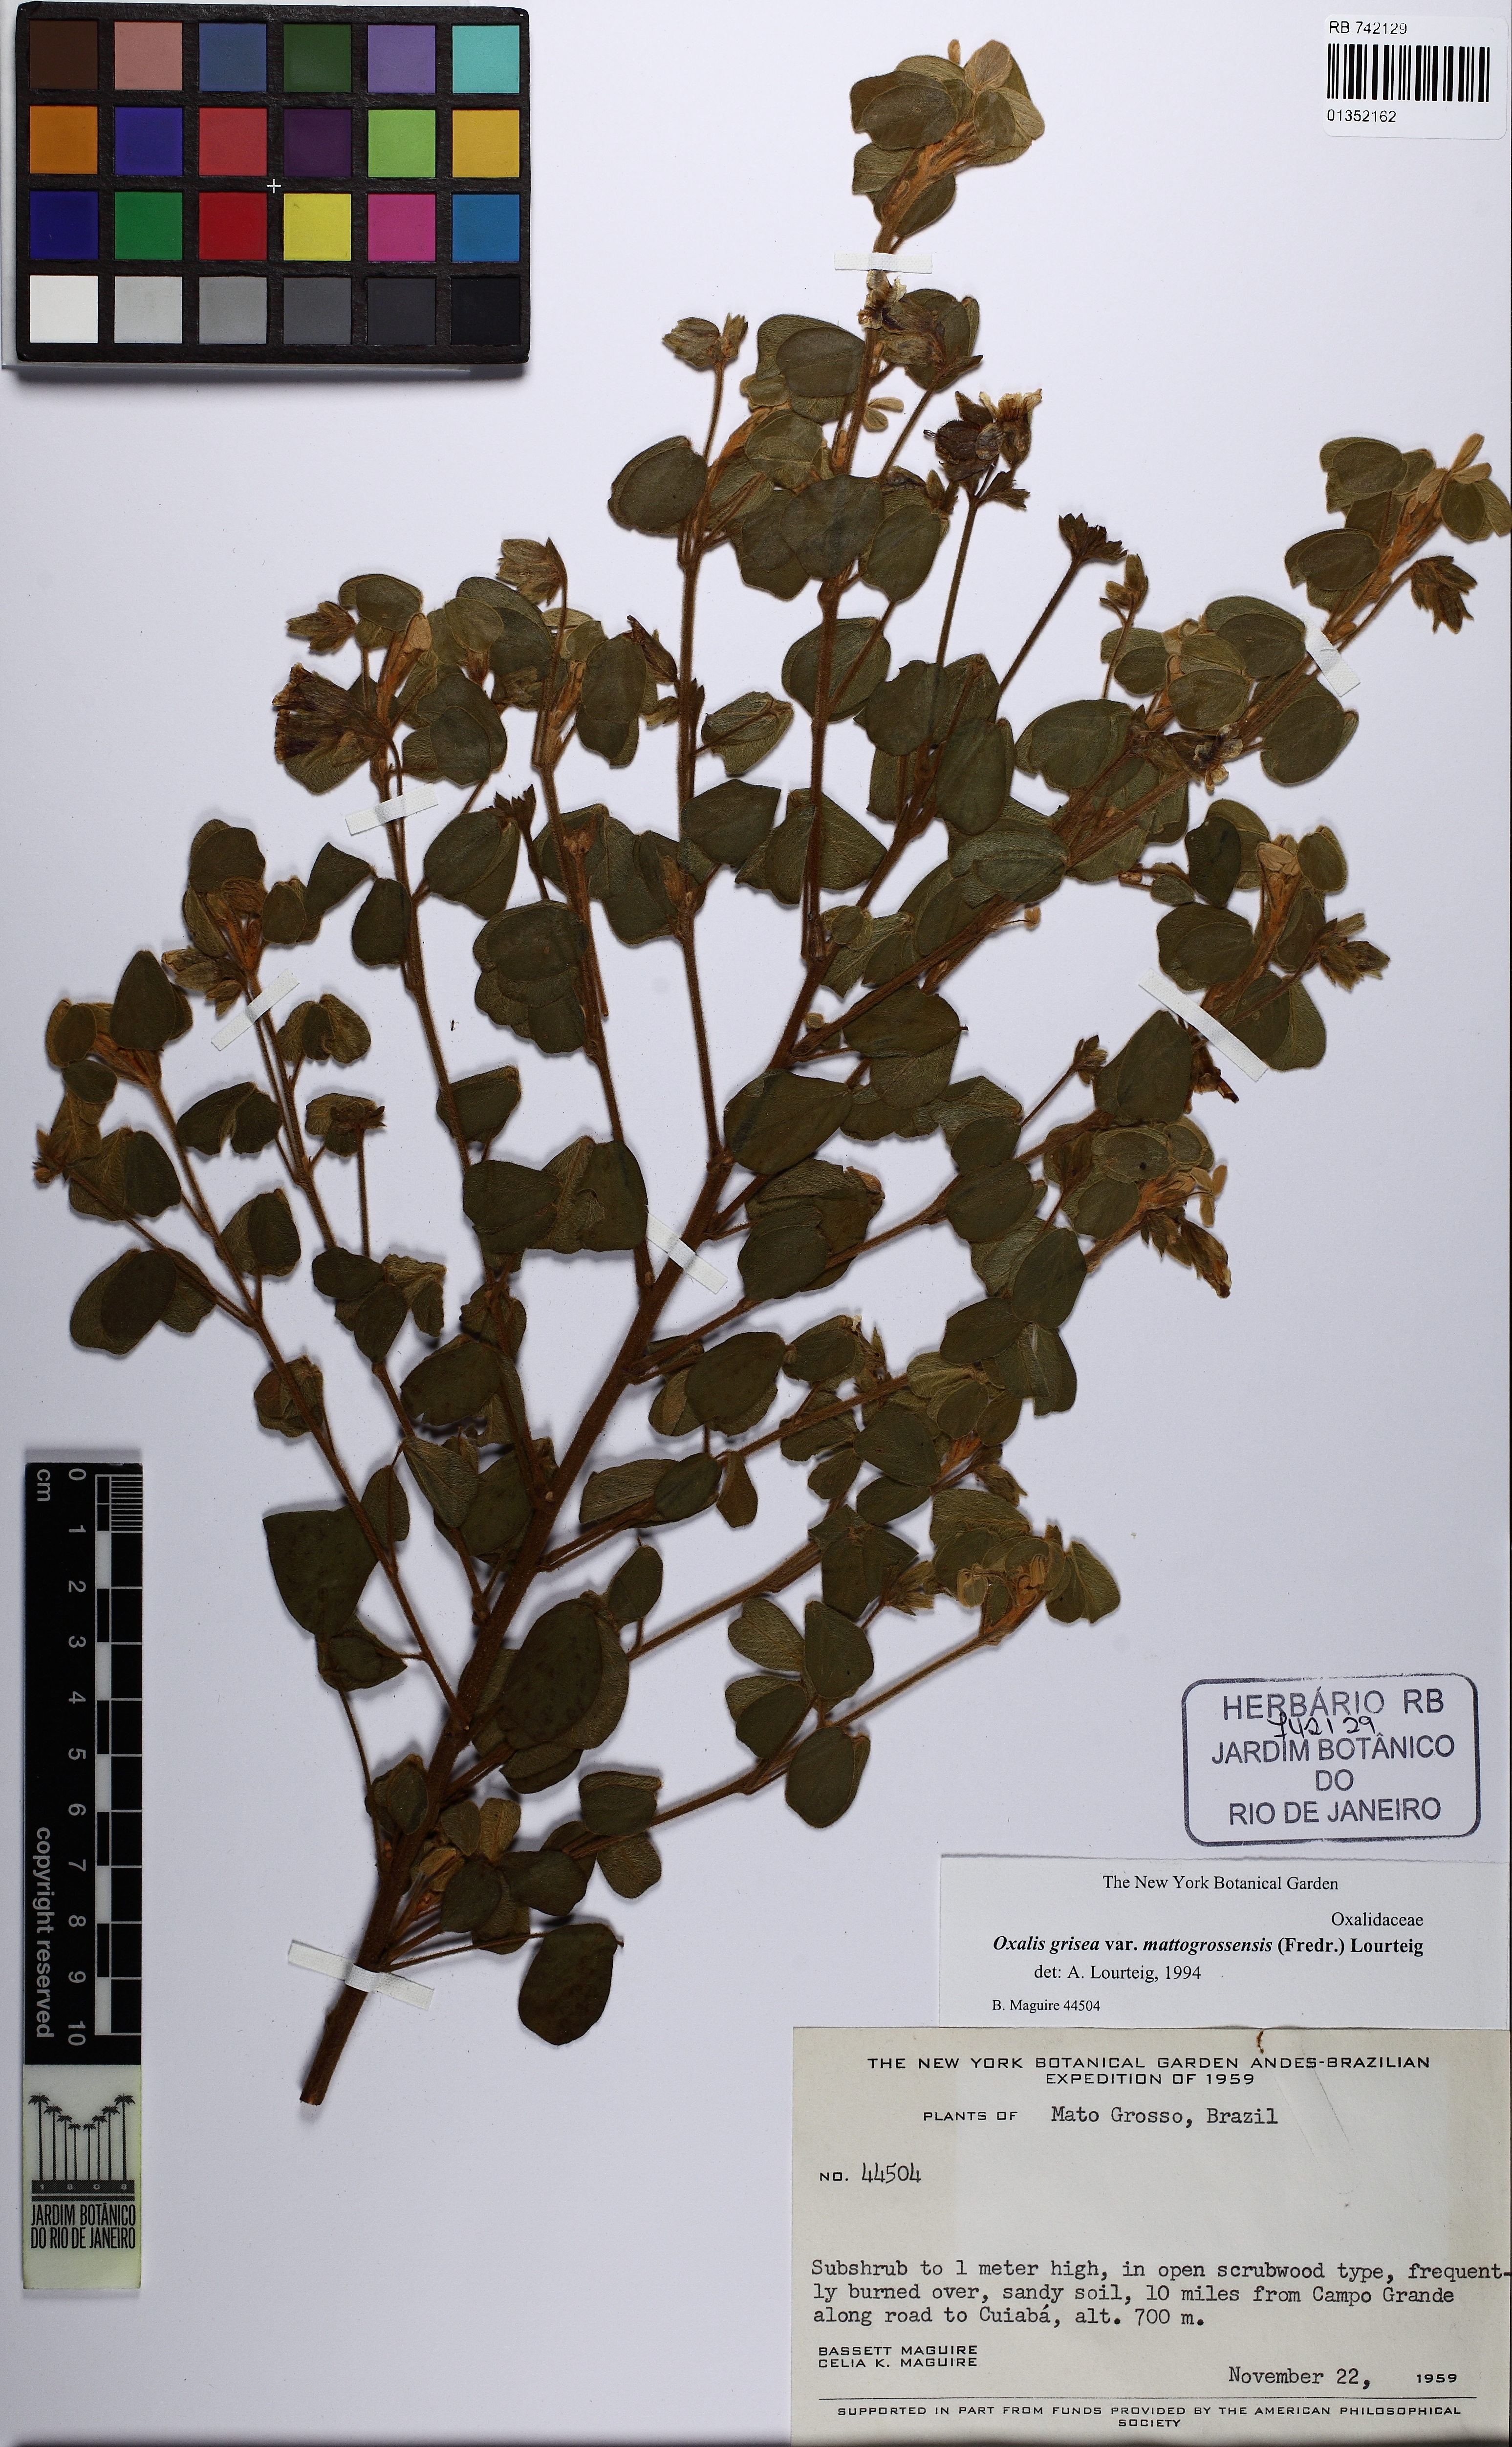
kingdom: Plantae
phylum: Tracheophyta
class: Magnoliopsida
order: Oxalidales
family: Oxalidaceae
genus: Oxalis
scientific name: Oxalis grisea
